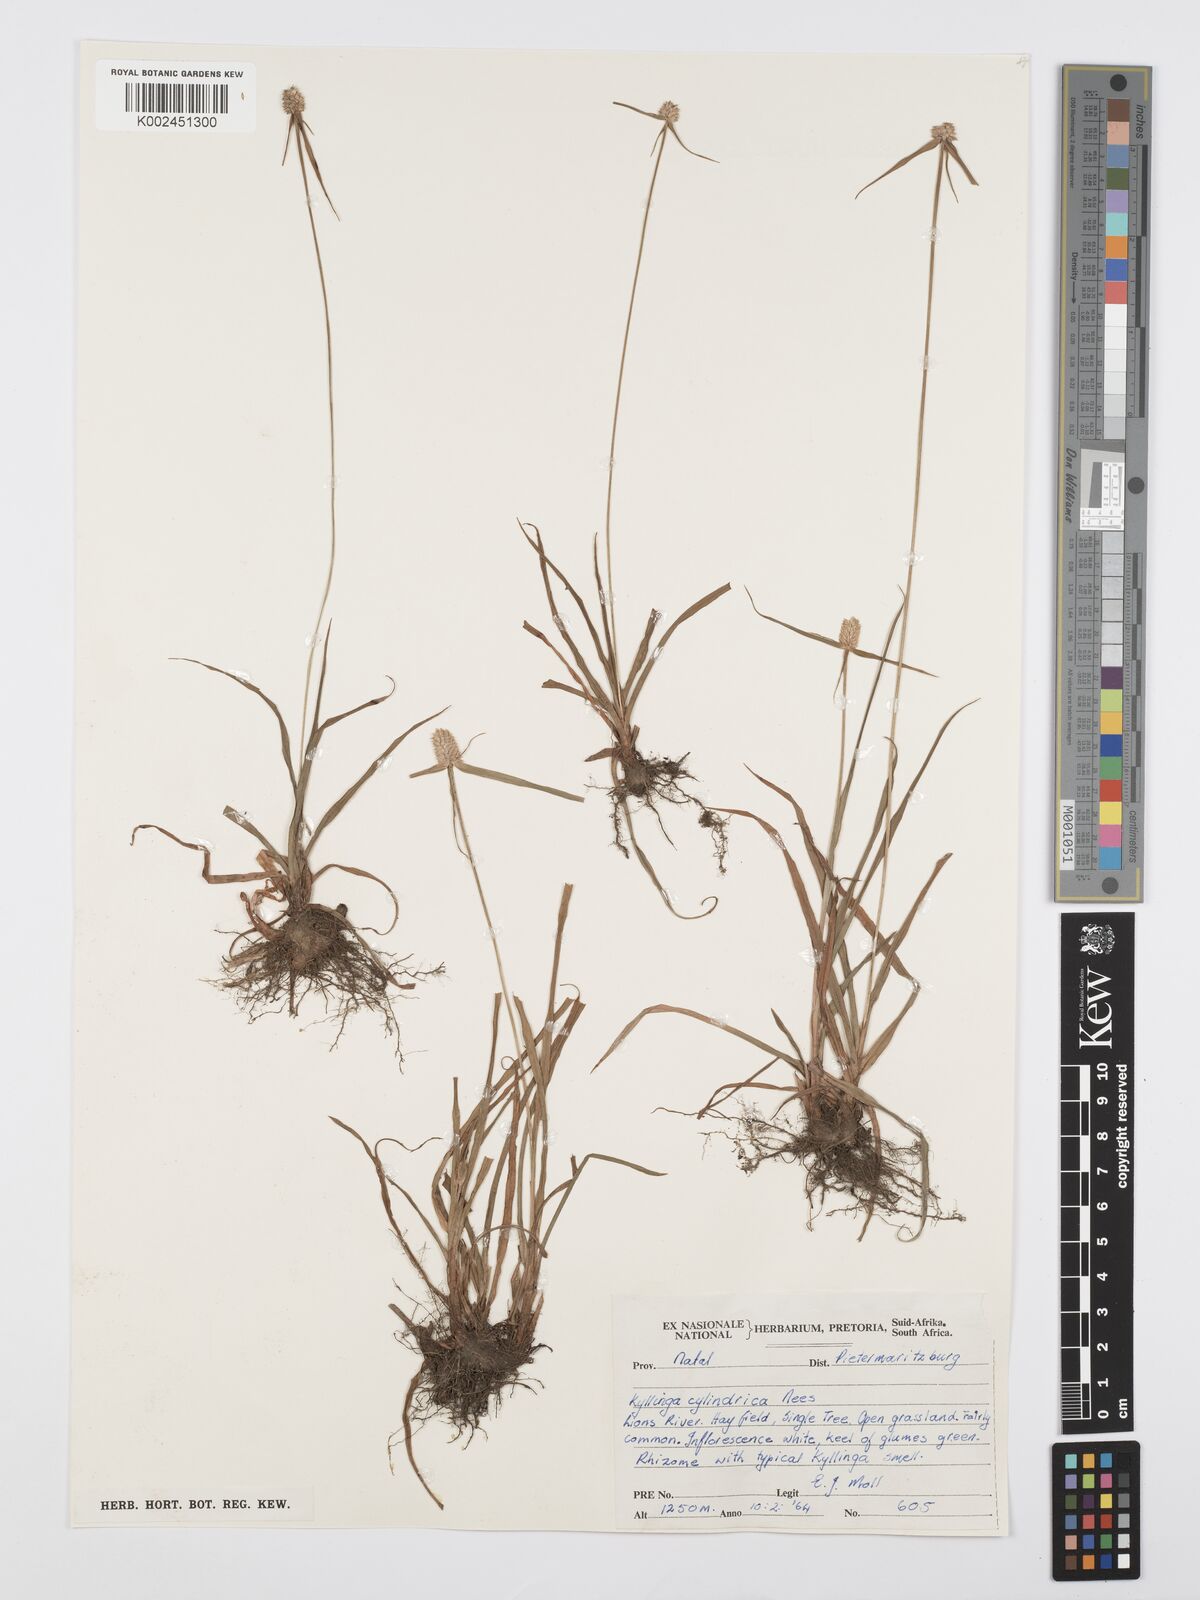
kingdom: Plantae
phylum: Tracheophyta
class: Liliopsida
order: Poales
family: Cyperaceae
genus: Cyperus
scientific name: Cyperus
